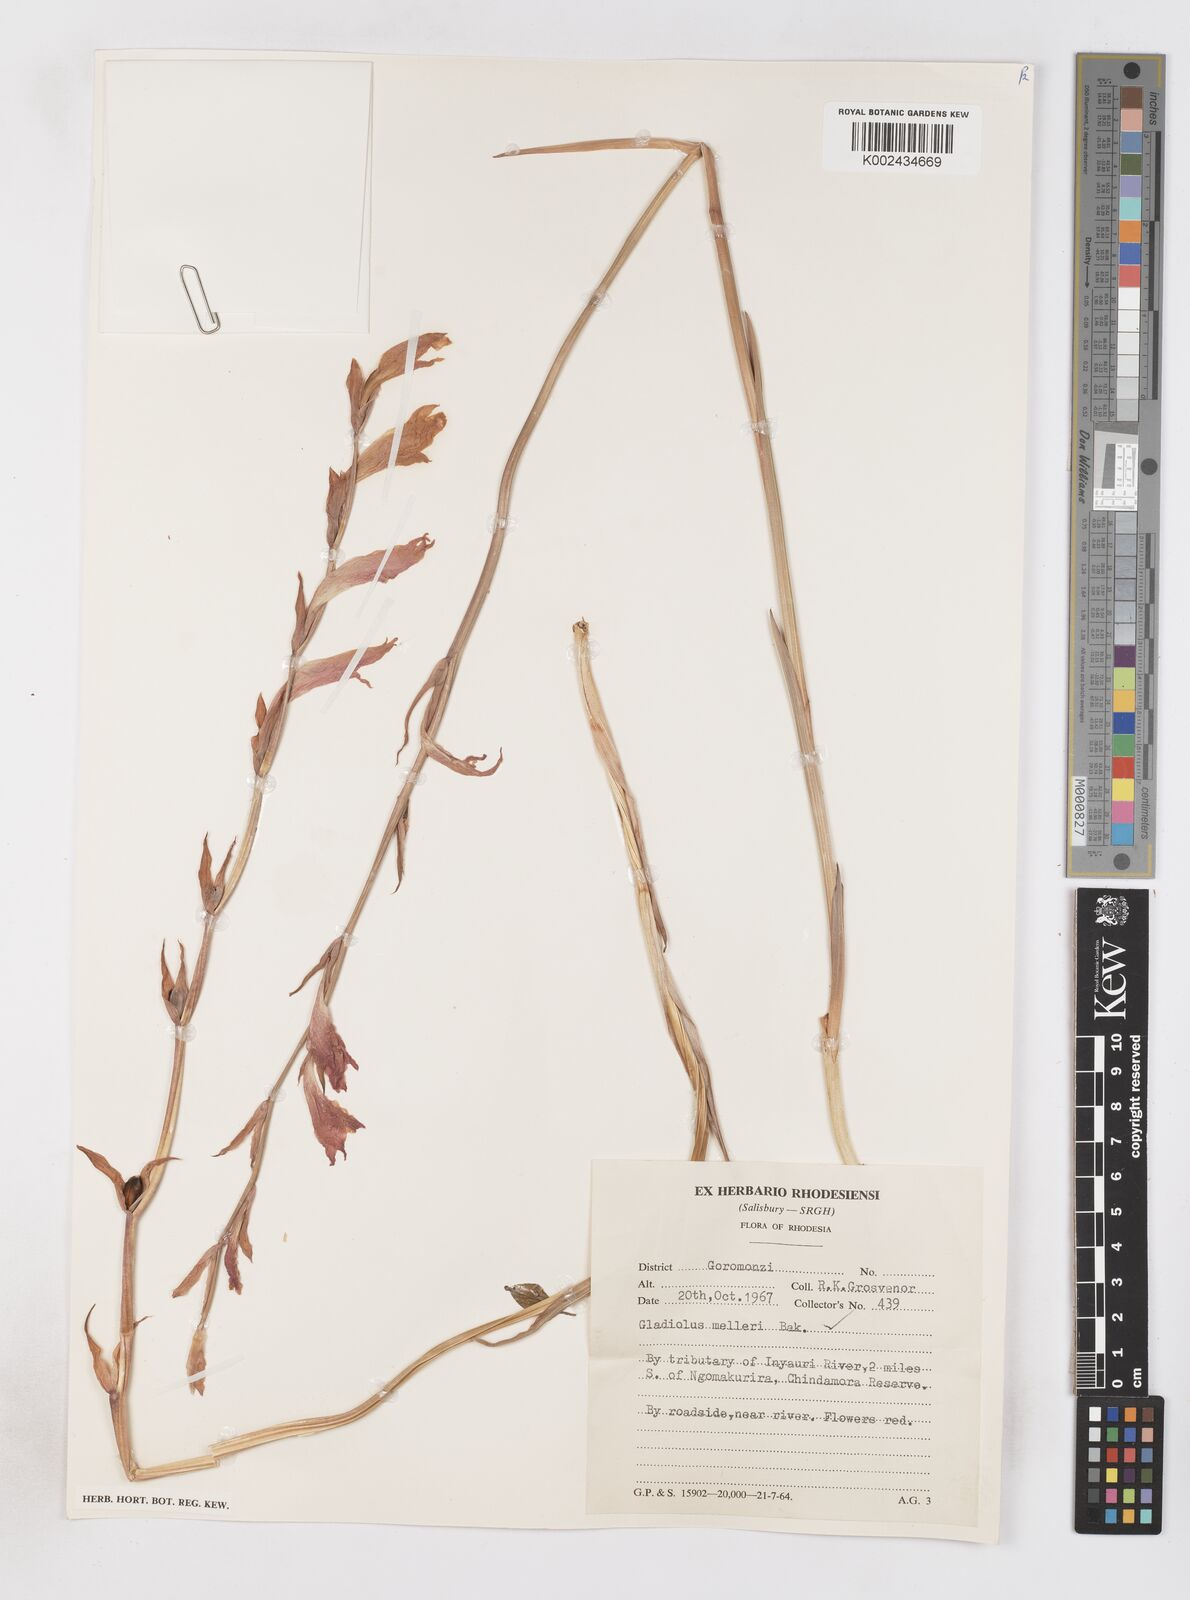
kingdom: Plantae
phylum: Tracheophyta
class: Liliopsida
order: Asparagales
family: Iridaceae
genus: Gladiolus
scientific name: Gladiolus melleri
